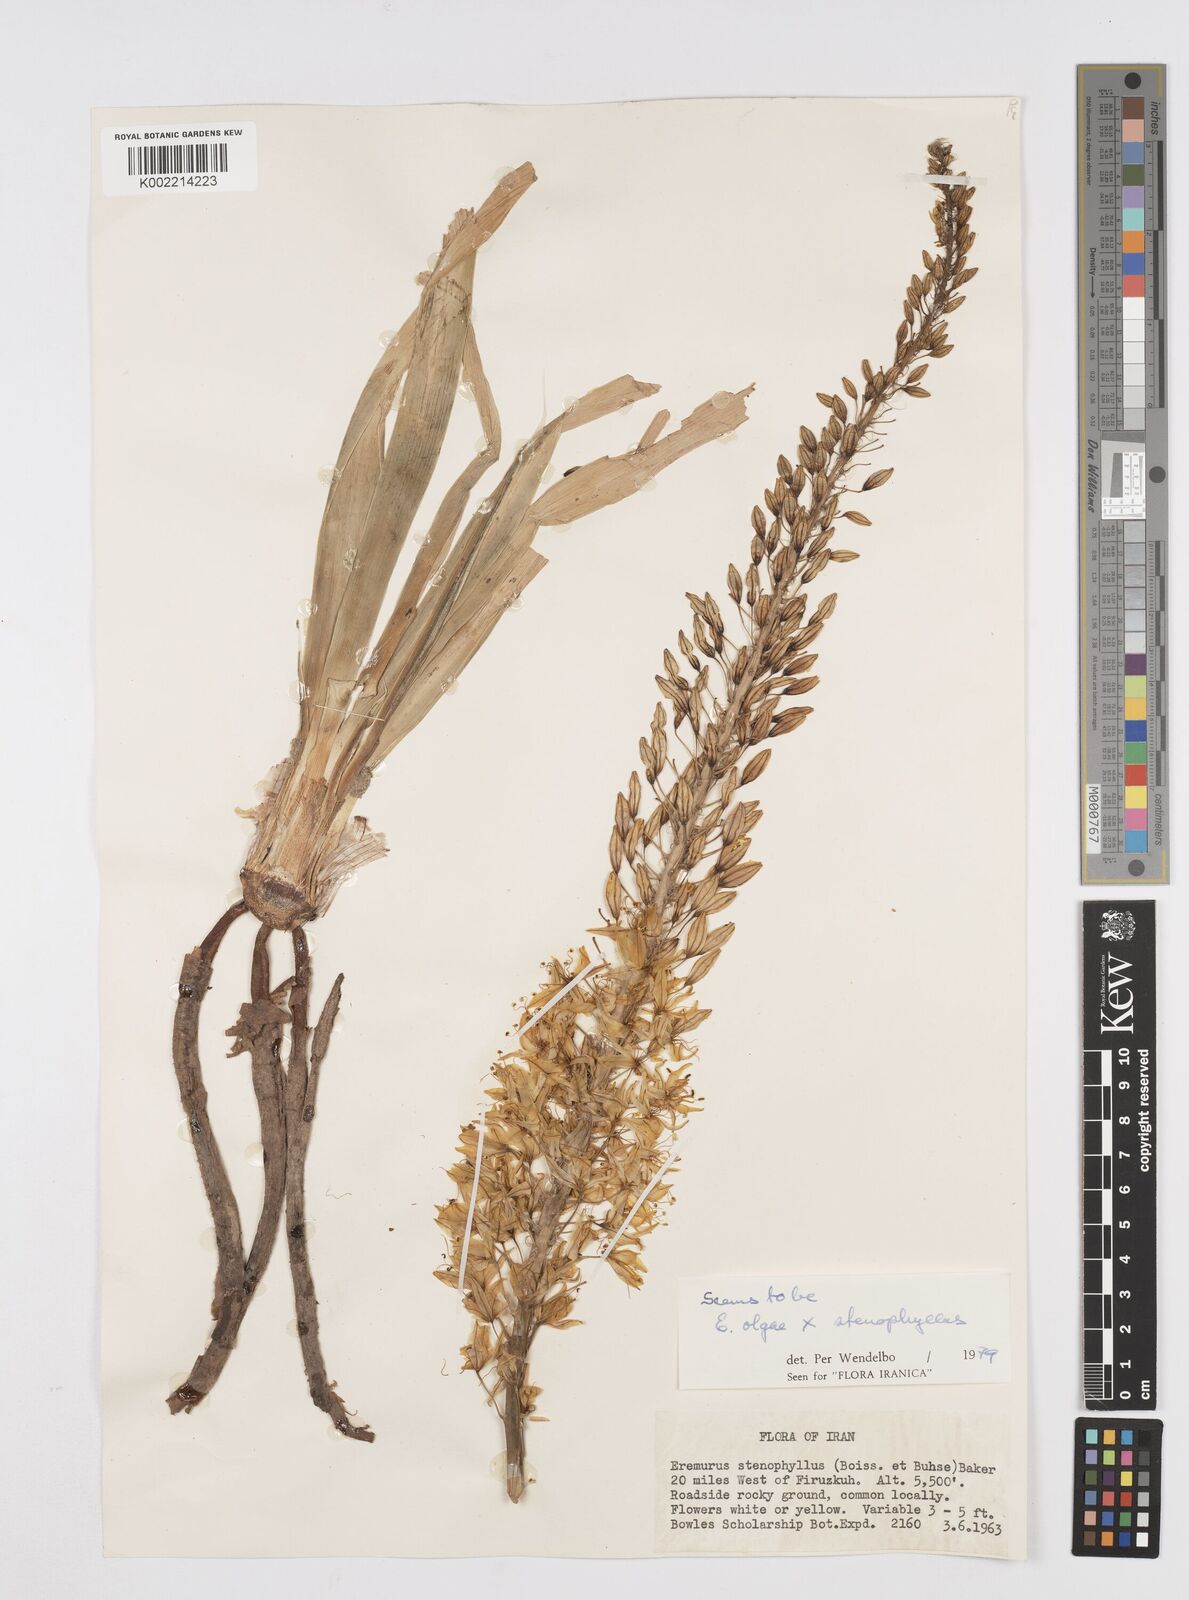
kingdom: Plantae
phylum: Tracheophyta
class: Liliopsida
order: Asparagales
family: Asphodelaceae
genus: Eremurus
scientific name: Eremurus stenophyllus
